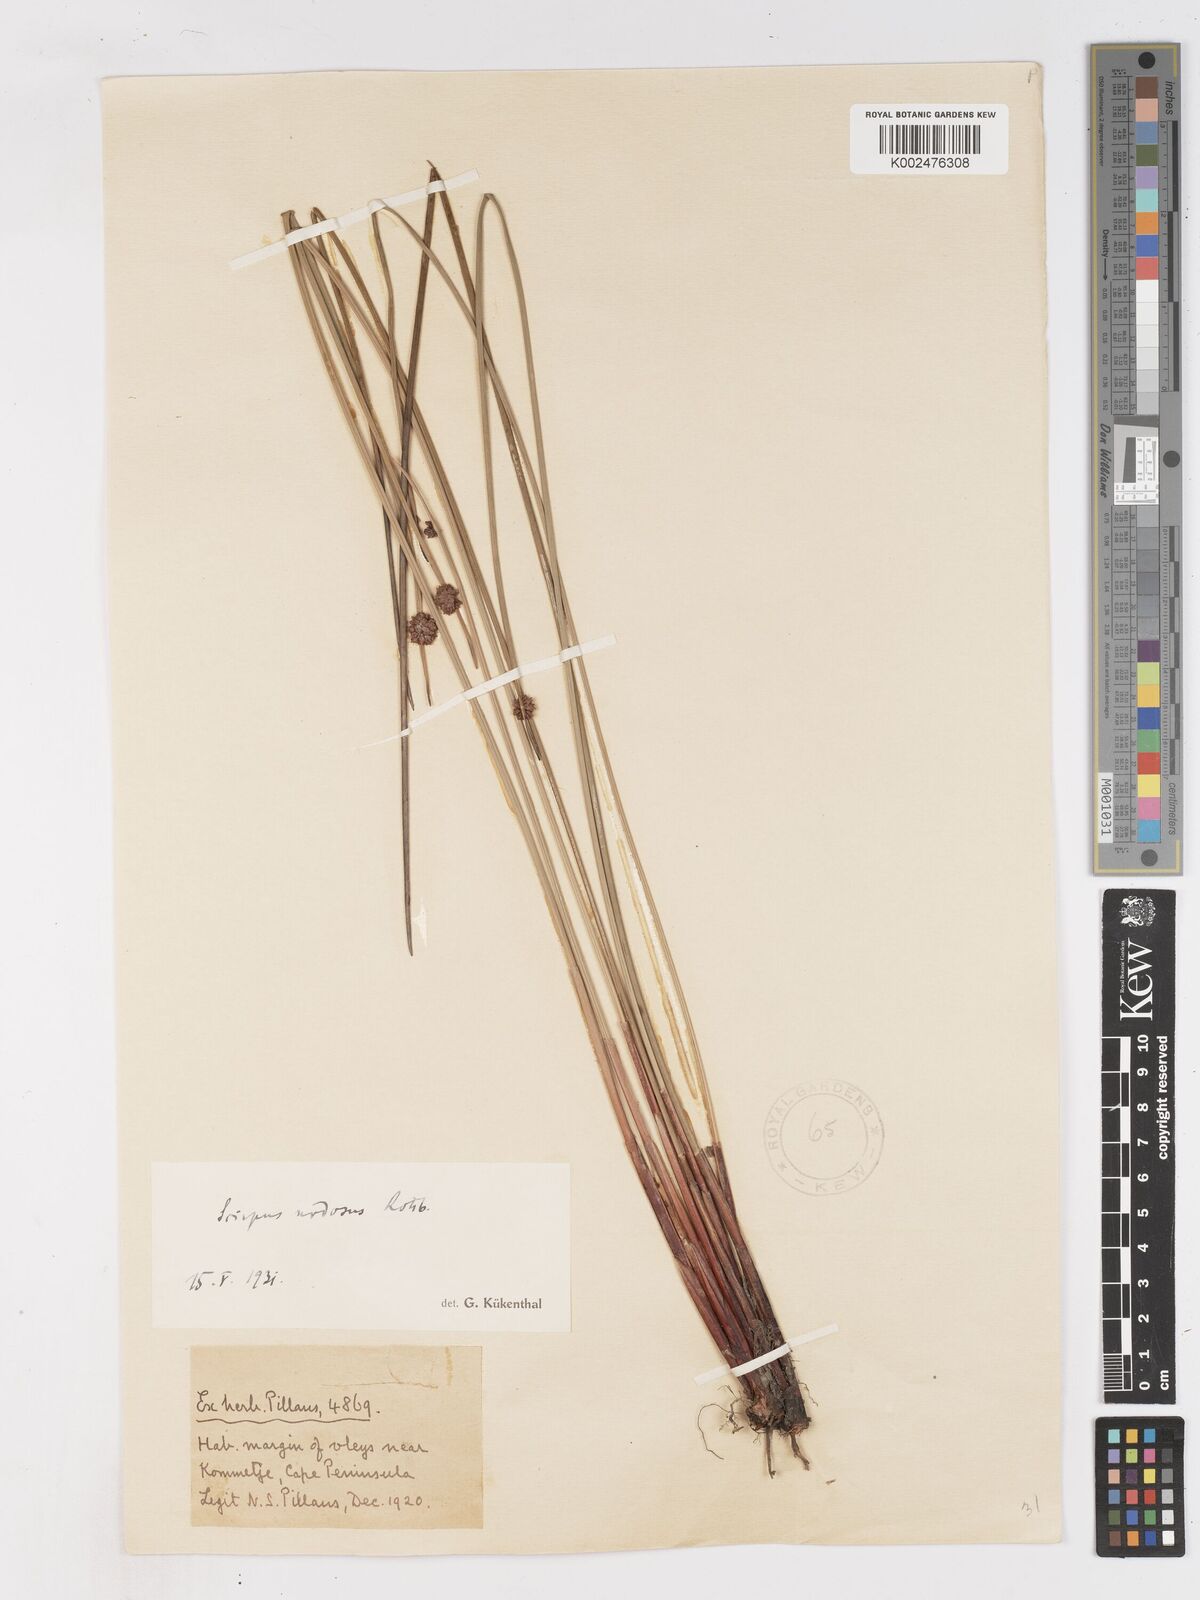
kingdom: Plantae
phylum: Tracheophyta
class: Liliopsida
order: Poales
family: Cyperaceae
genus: Ficinia
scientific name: Ficinia nodosa
